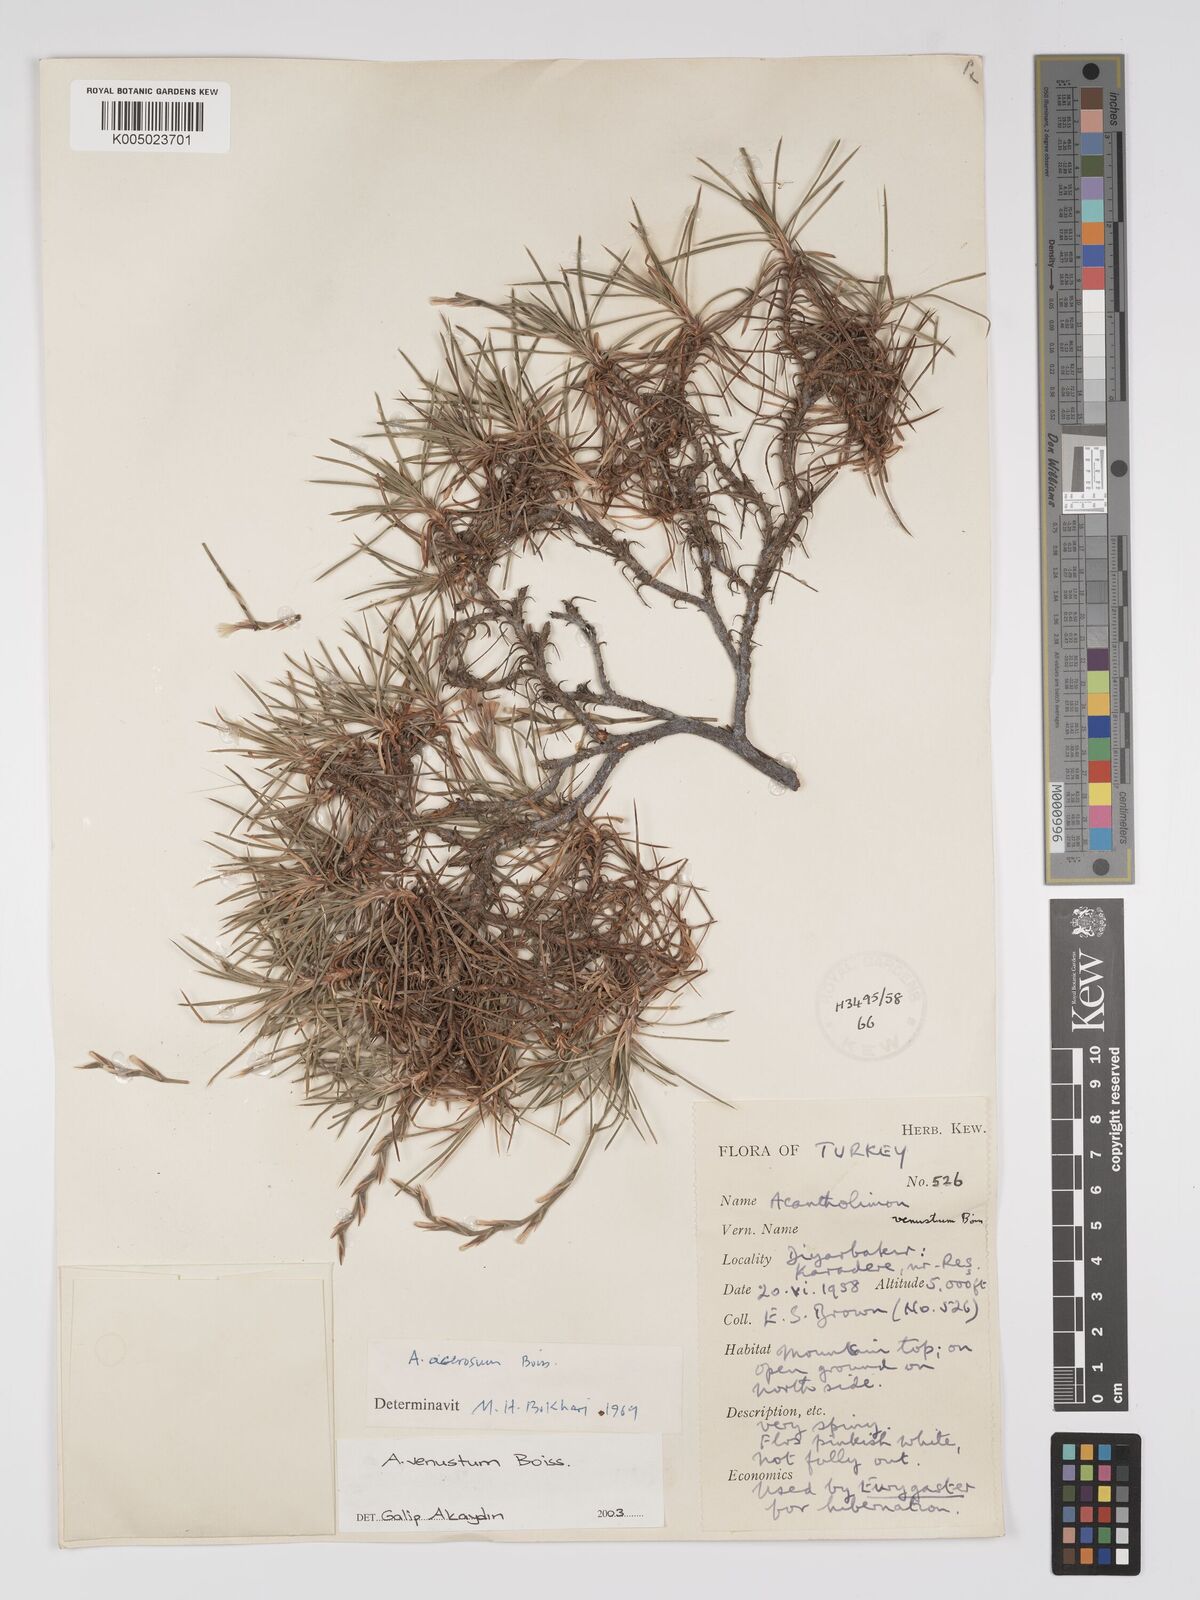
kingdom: Plantae
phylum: Tracheophyta
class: Magnoliopsida
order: Caryophyllales
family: Plumbaginaceae
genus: Acantholimon
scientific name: Acantholimon venustum
